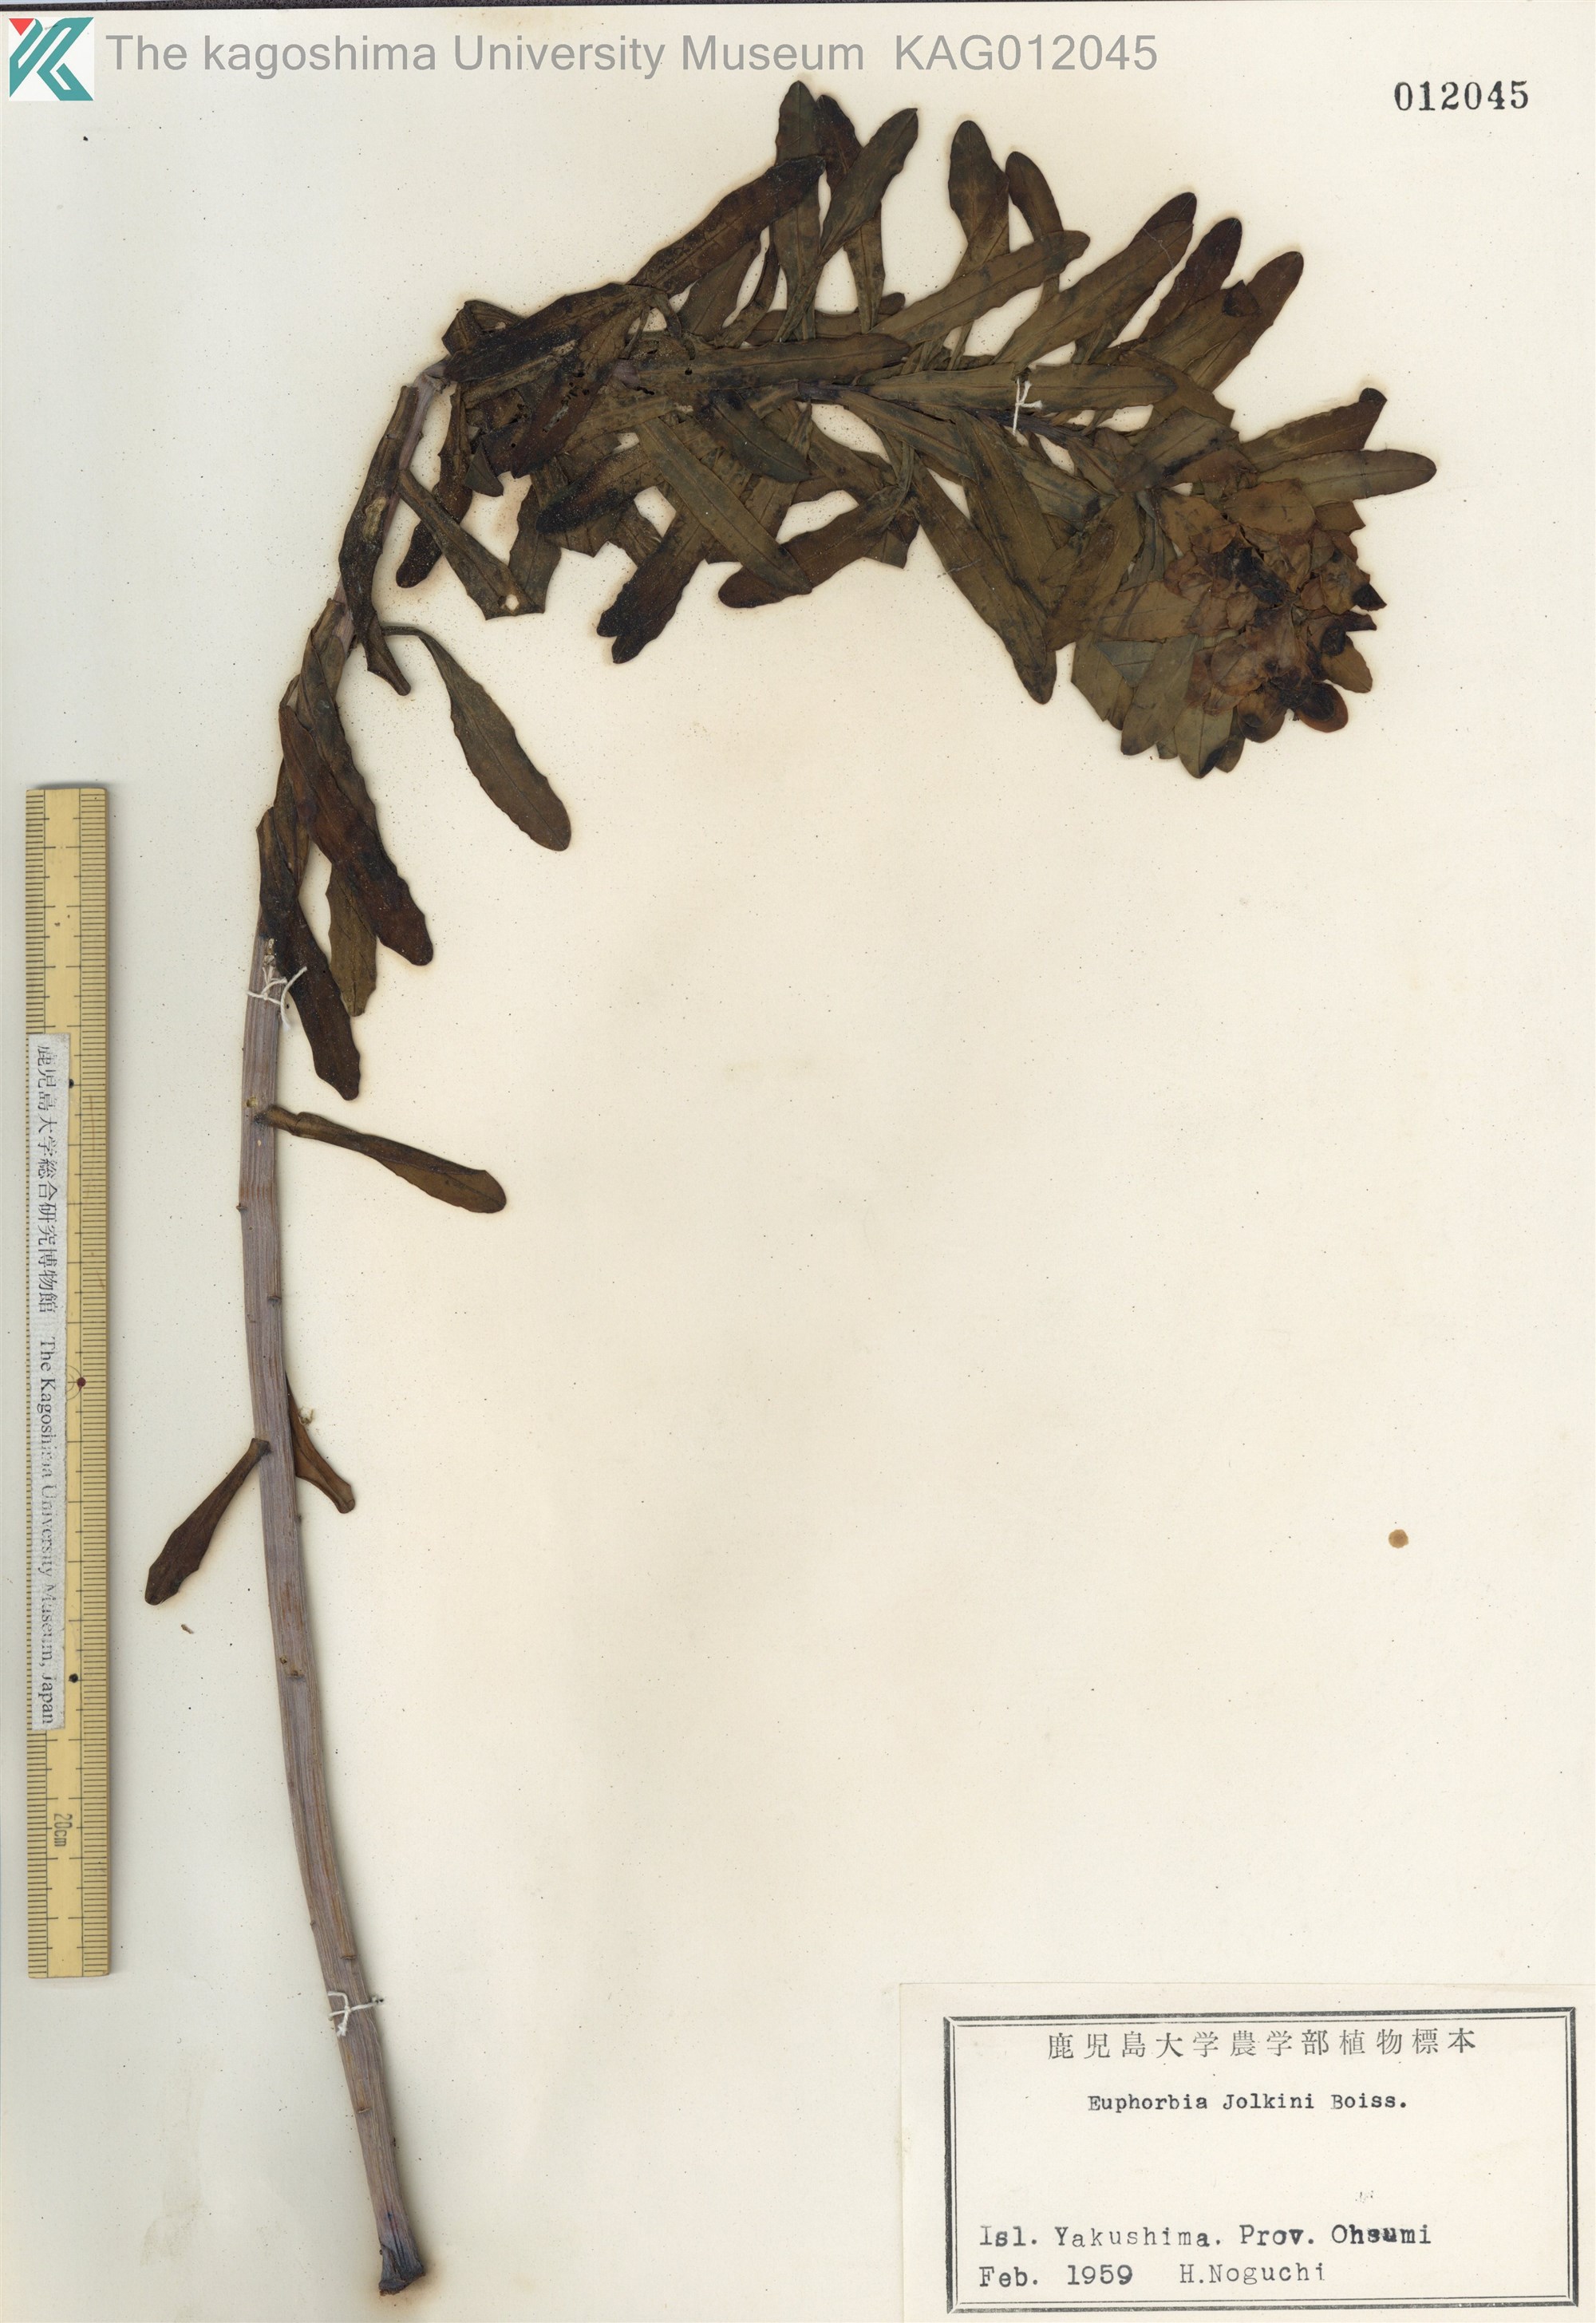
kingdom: Plantae
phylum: Tracheophyta
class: Magnoliopsida
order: Malpighiales
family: Euphorbiaceae
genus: Euphorbia
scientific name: Euphorbia jolkinii
